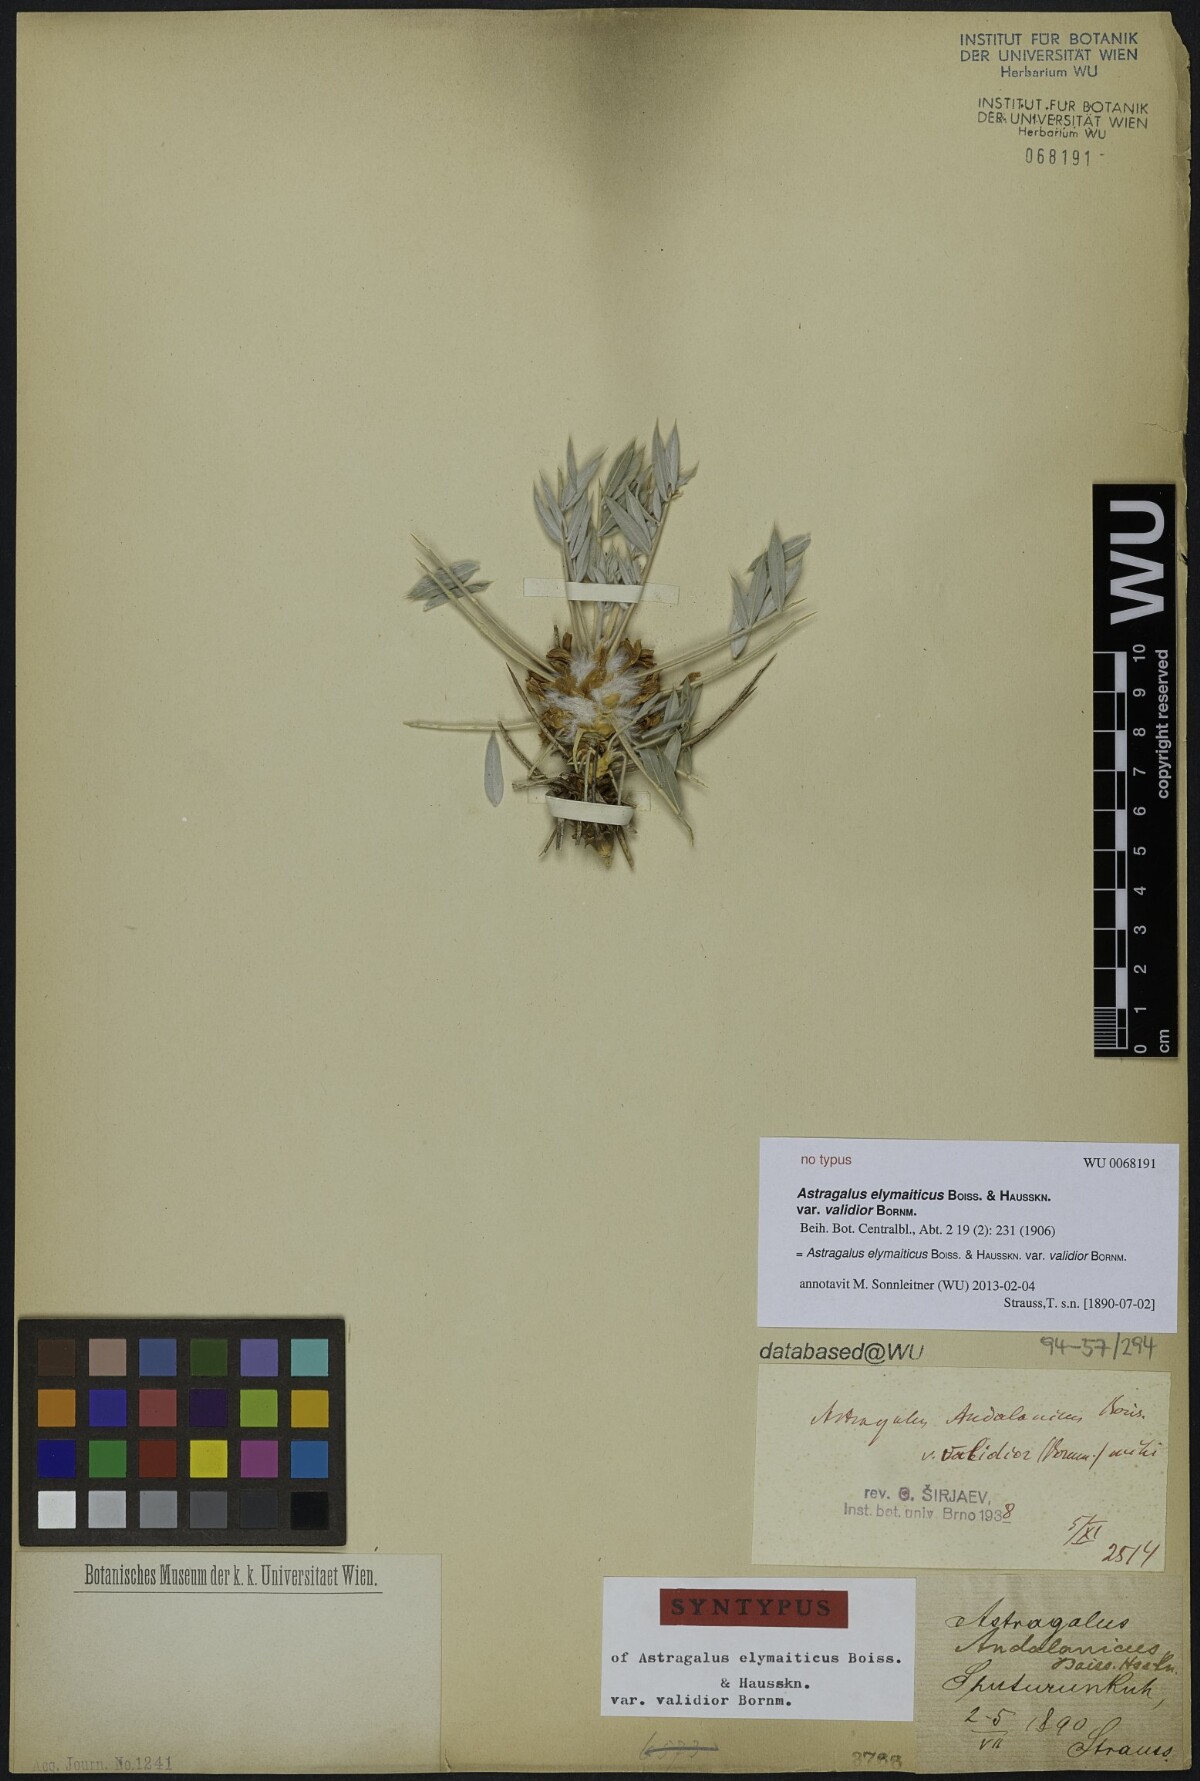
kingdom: Plantae
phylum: Tracheophyta
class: Magnoliopsida
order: Fabales
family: Fabaceae
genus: Astragalus
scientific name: Astragalus andalanicus
